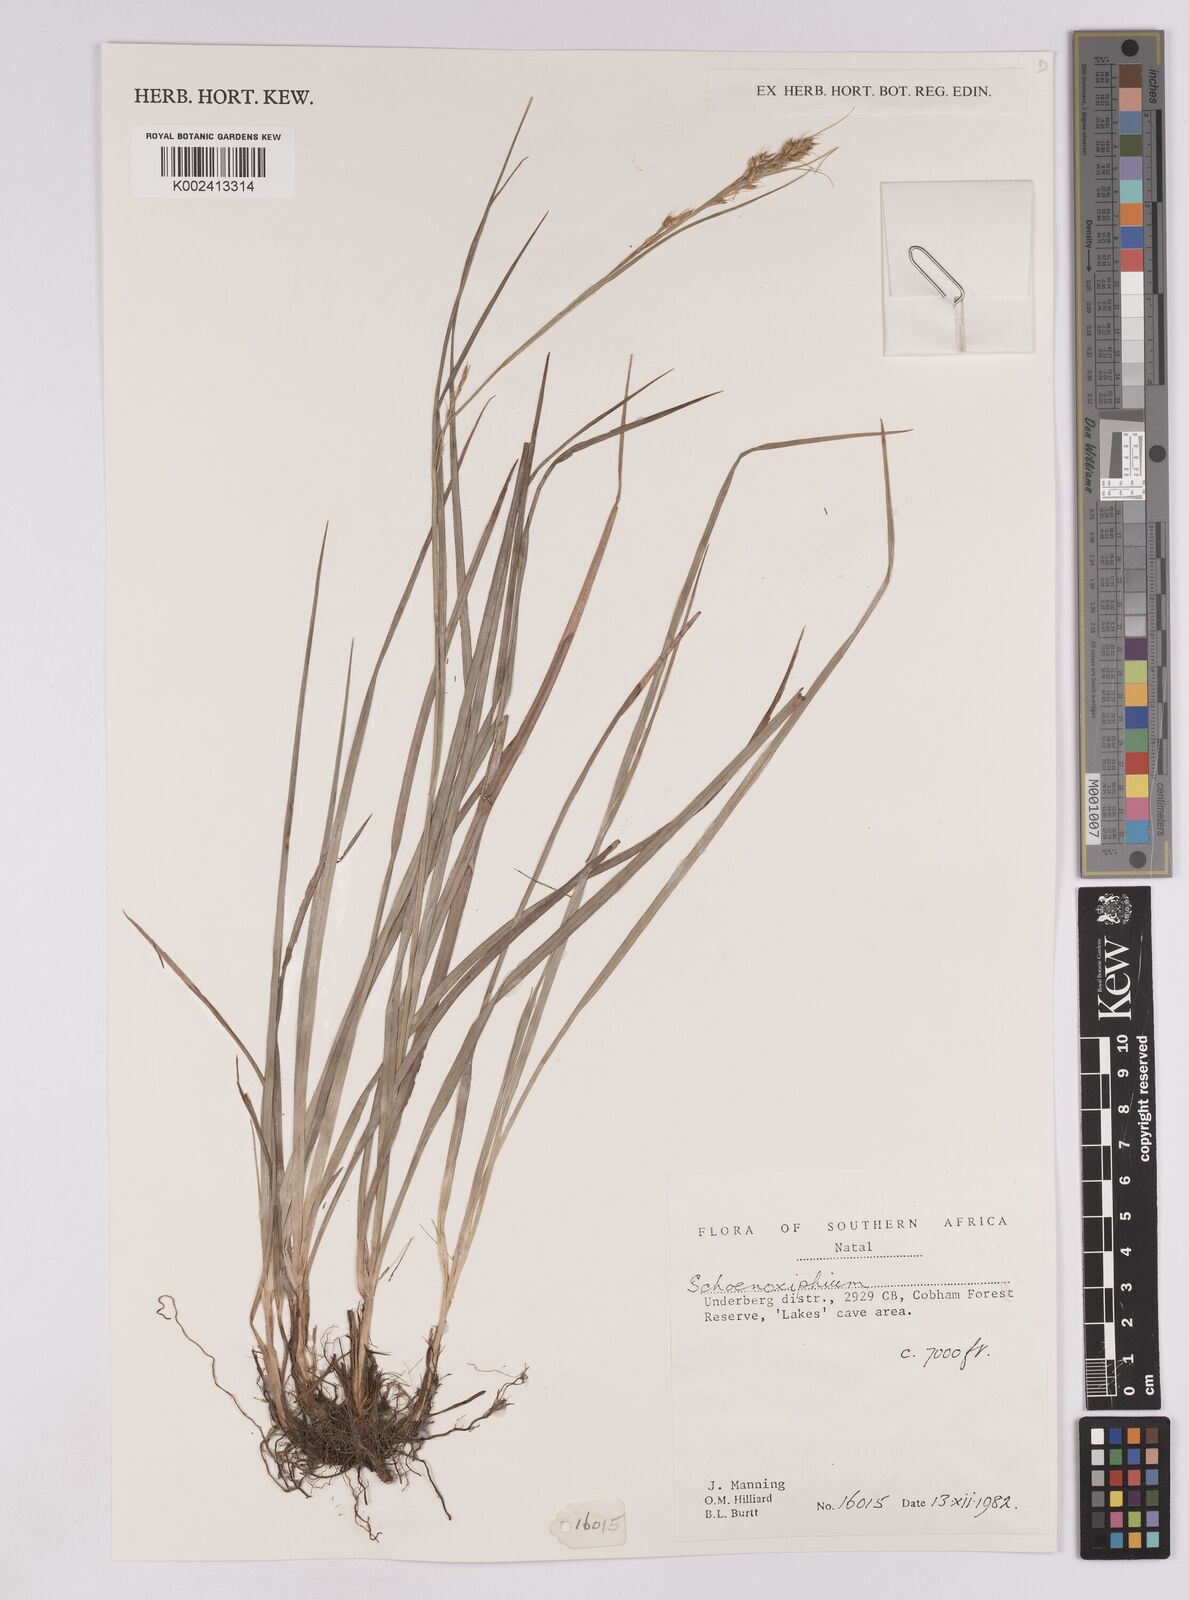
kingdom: Plantae
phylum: Tracheophyta
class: Liliopsida
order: Poales
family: Cyperaceae
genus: Carex
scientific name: Carex
